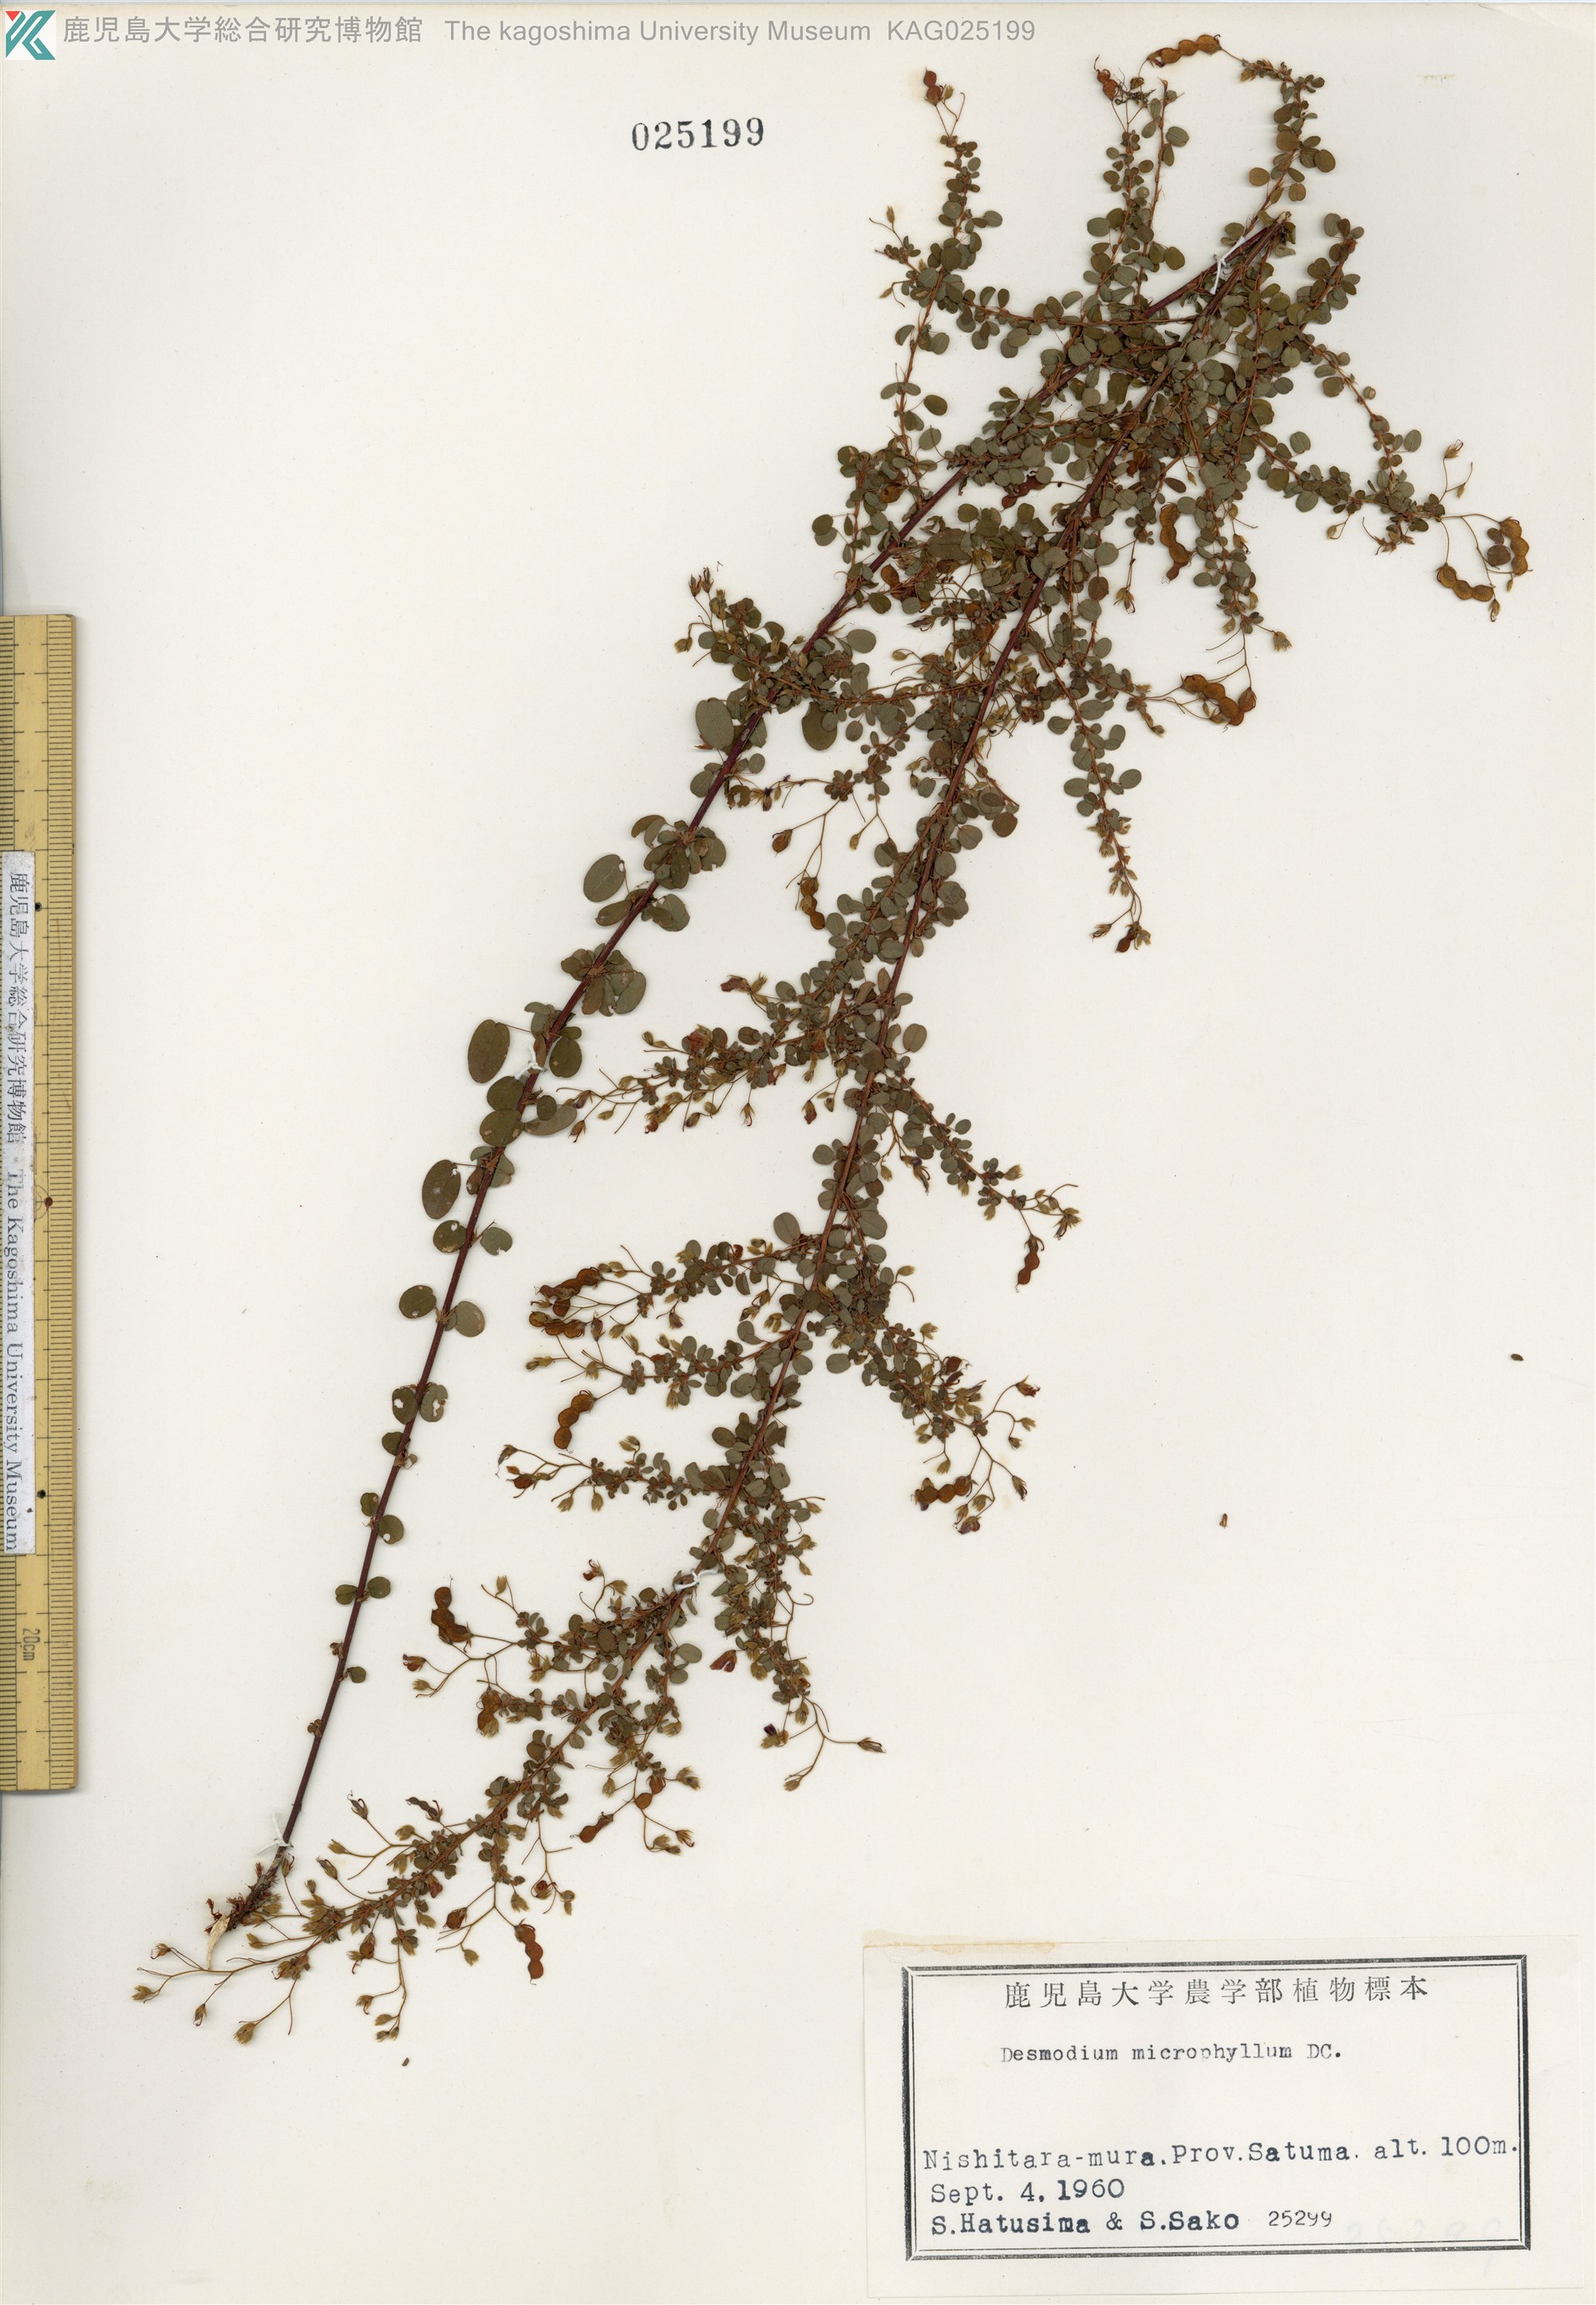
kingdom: Plantae
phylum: Tracheophyta
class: Magnoliopsida
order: Fabales
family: Fabaceae
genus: Leptodesmia
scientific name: Leptodesmia microphylla
